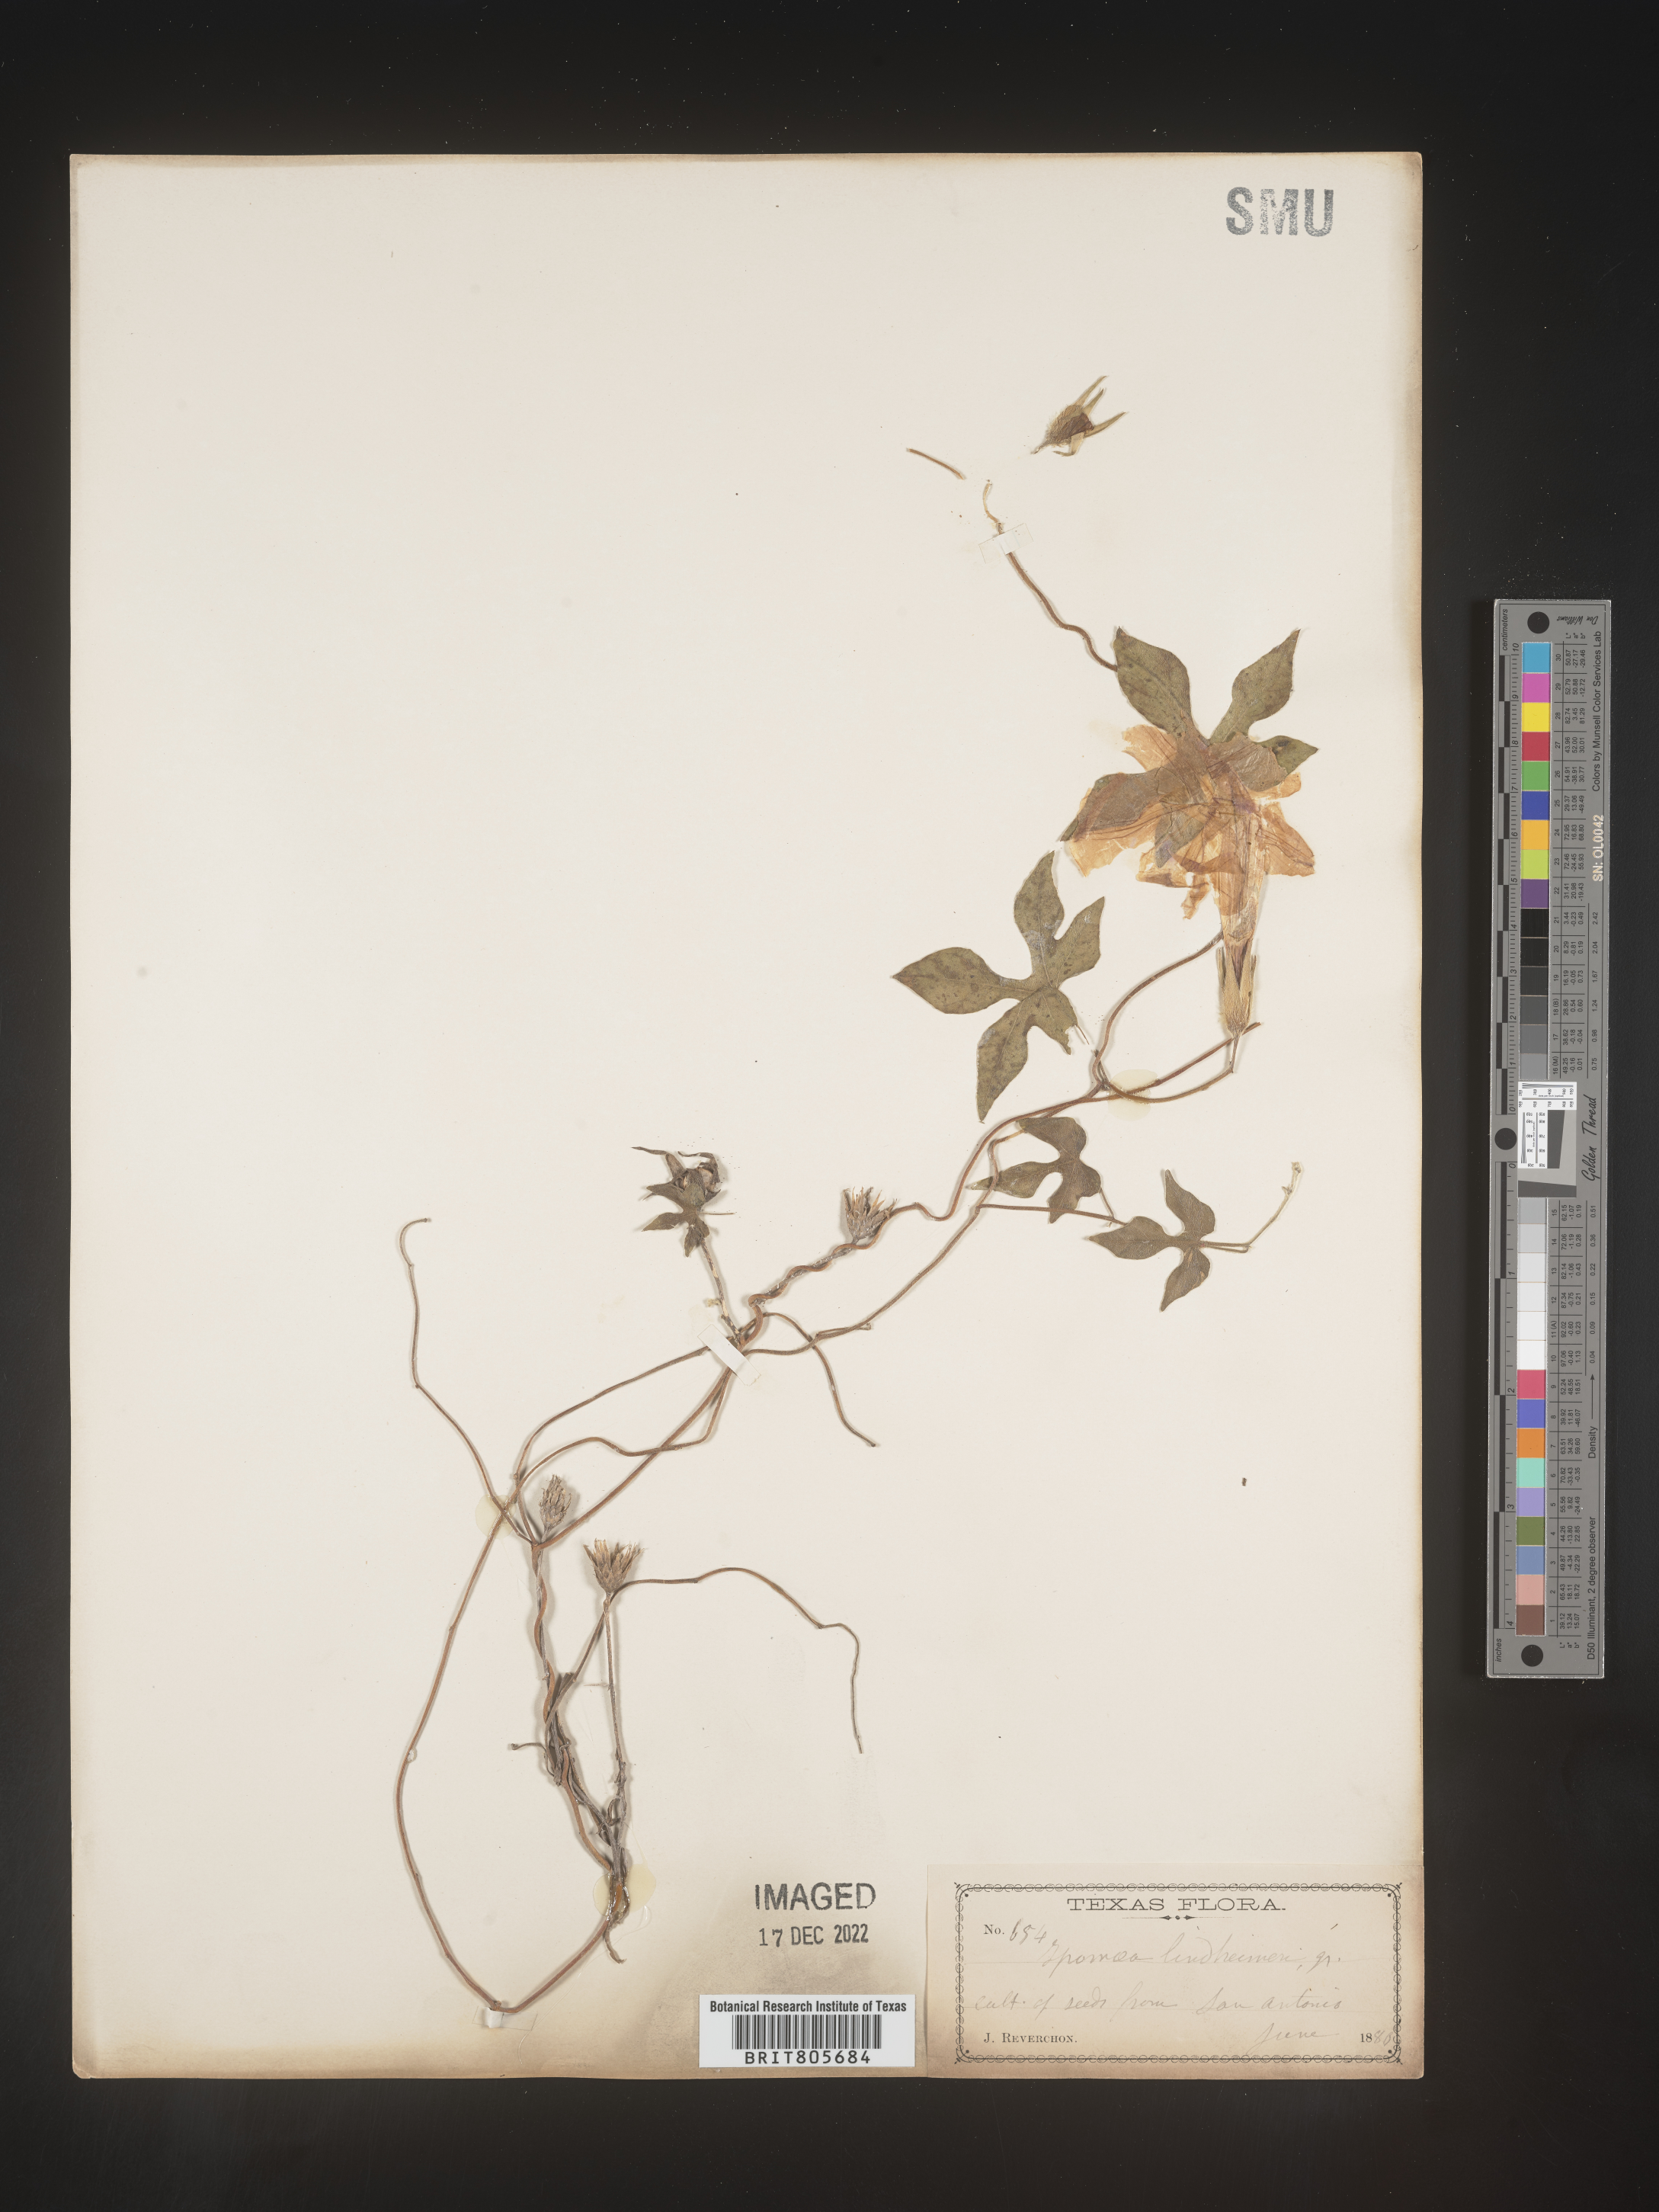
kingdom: Plantae
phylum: Tracheophyta
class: Magnoliopsida
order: Solanales
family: Convolvulaceae
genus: Ipomoea
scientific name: Ipomoea
